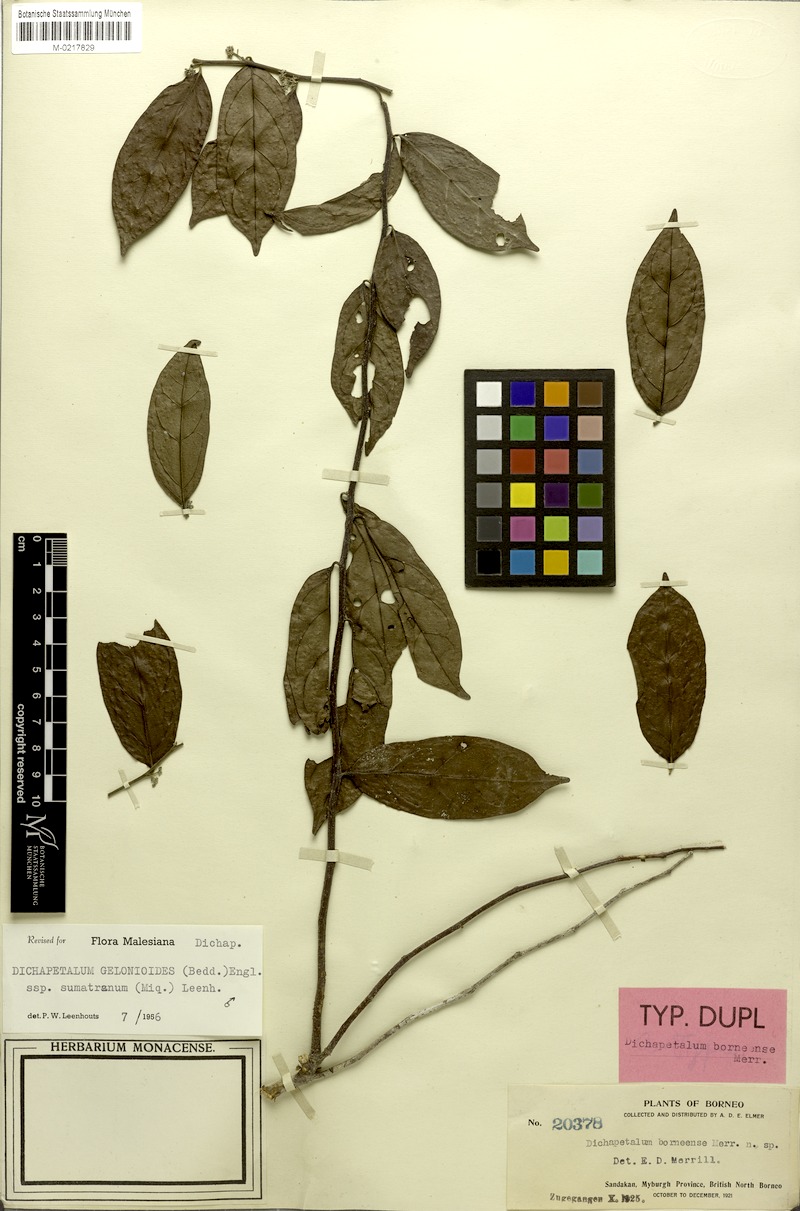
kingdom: Plantae
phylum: Tracheophyta
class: Magnoliopsida
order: Malpighiales
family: Dichapetalaceae
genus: Dichapetalum
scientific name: Dichapetalum gelonioides
